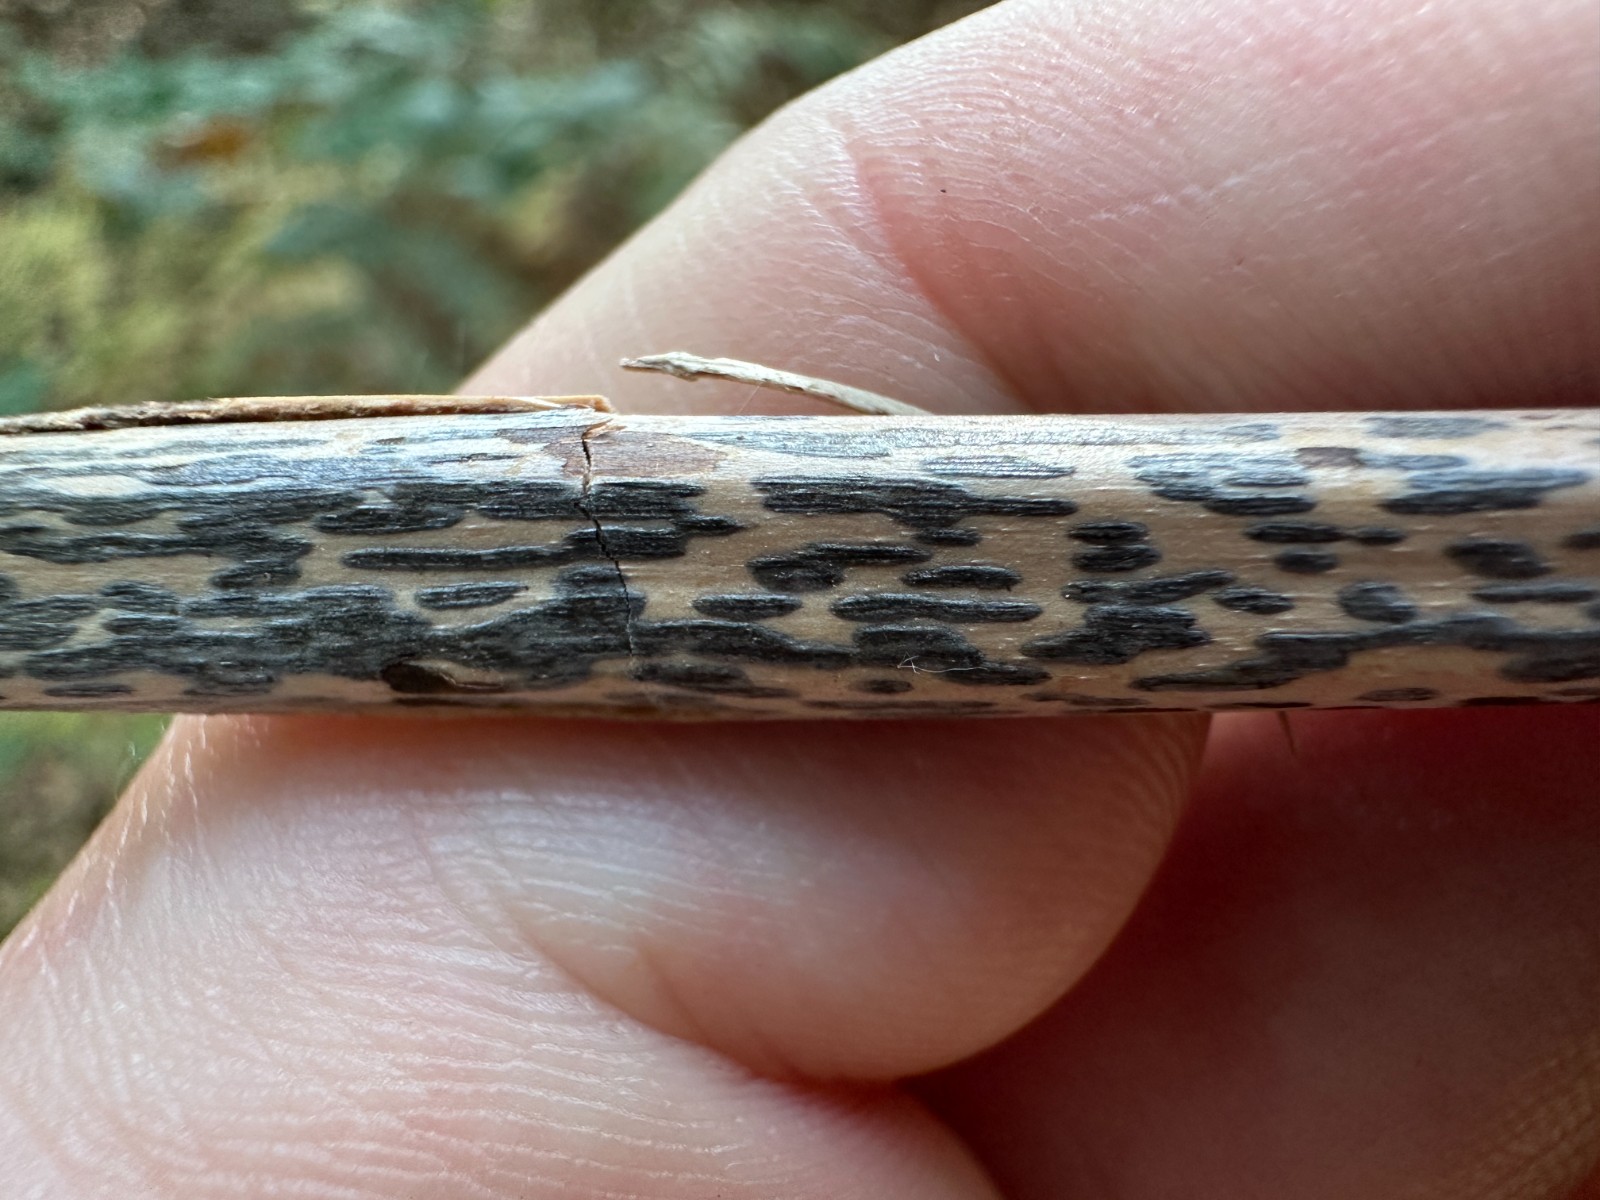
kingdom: Fungi
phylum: Ascomycota
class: Dothideomycetes
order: Pleosporales
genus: Rhopographus
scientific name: Rhopographus filicinus
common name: Bracken map
